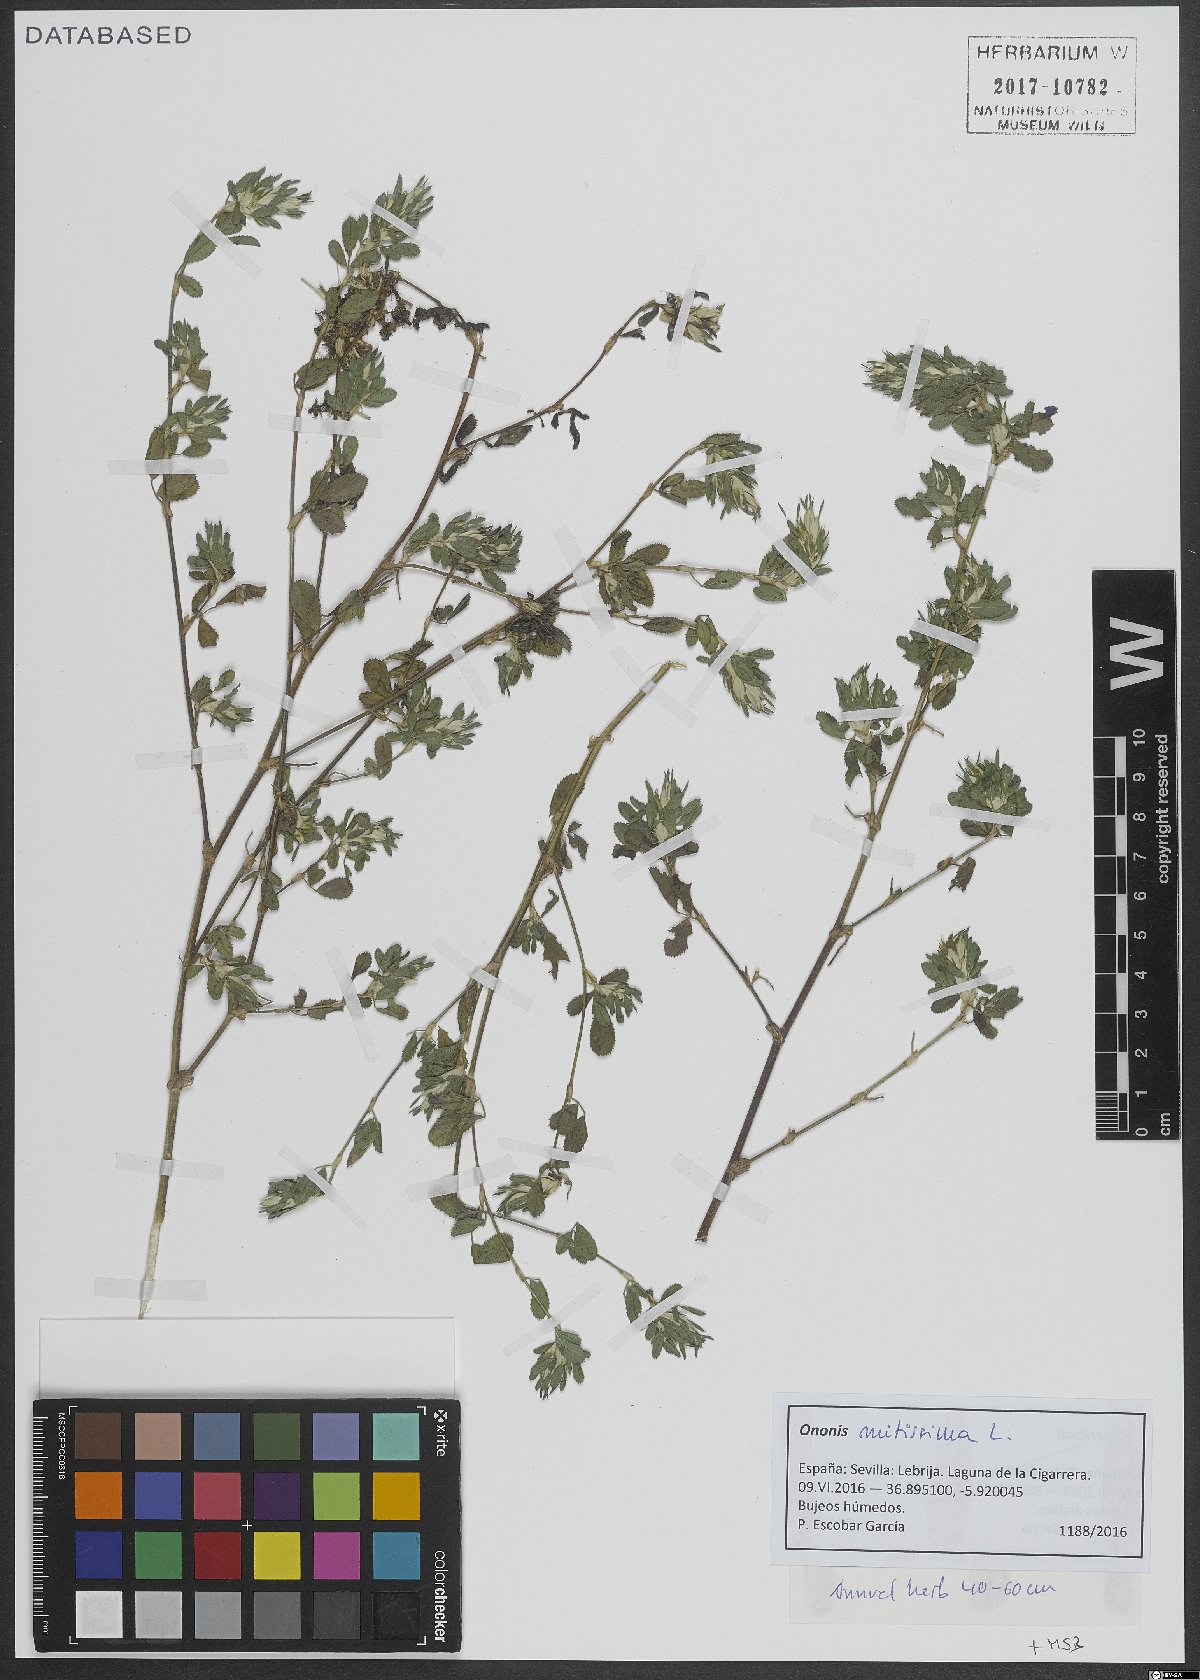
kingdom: Plantae
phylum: Tracheophyta
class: Magnoliopsida
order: Fabales
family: Fabaceae
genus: Ononis
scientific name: Ononis mitissima
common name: Mediterranean restharrow
